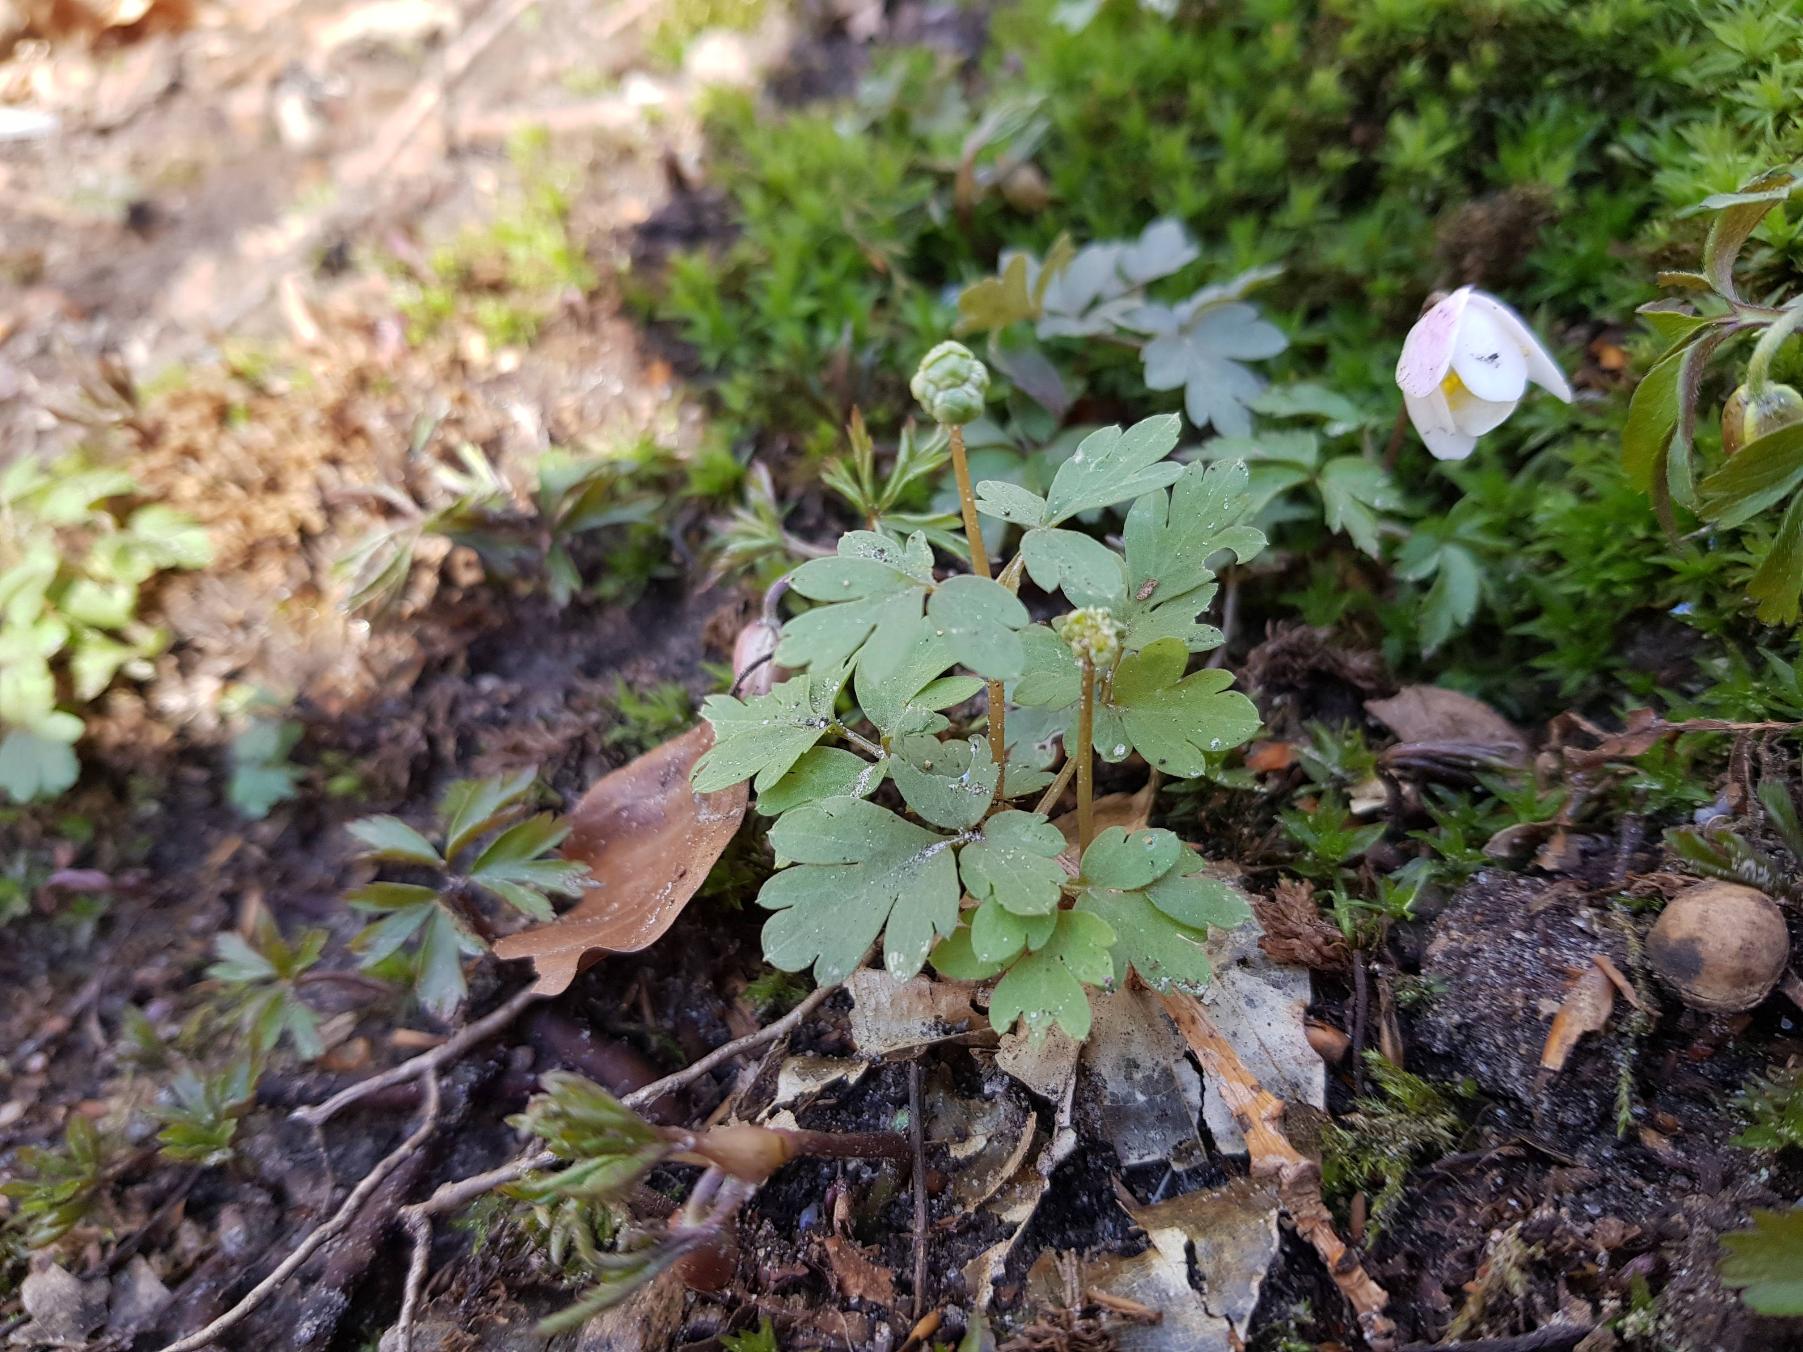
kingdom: Plantae
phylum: Tracheophyta
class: Magnoliopsida
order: Dipsacales
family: Viburnaceae
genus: Adoxa
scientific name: Adoxa moschatellina
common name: Desmerurt
